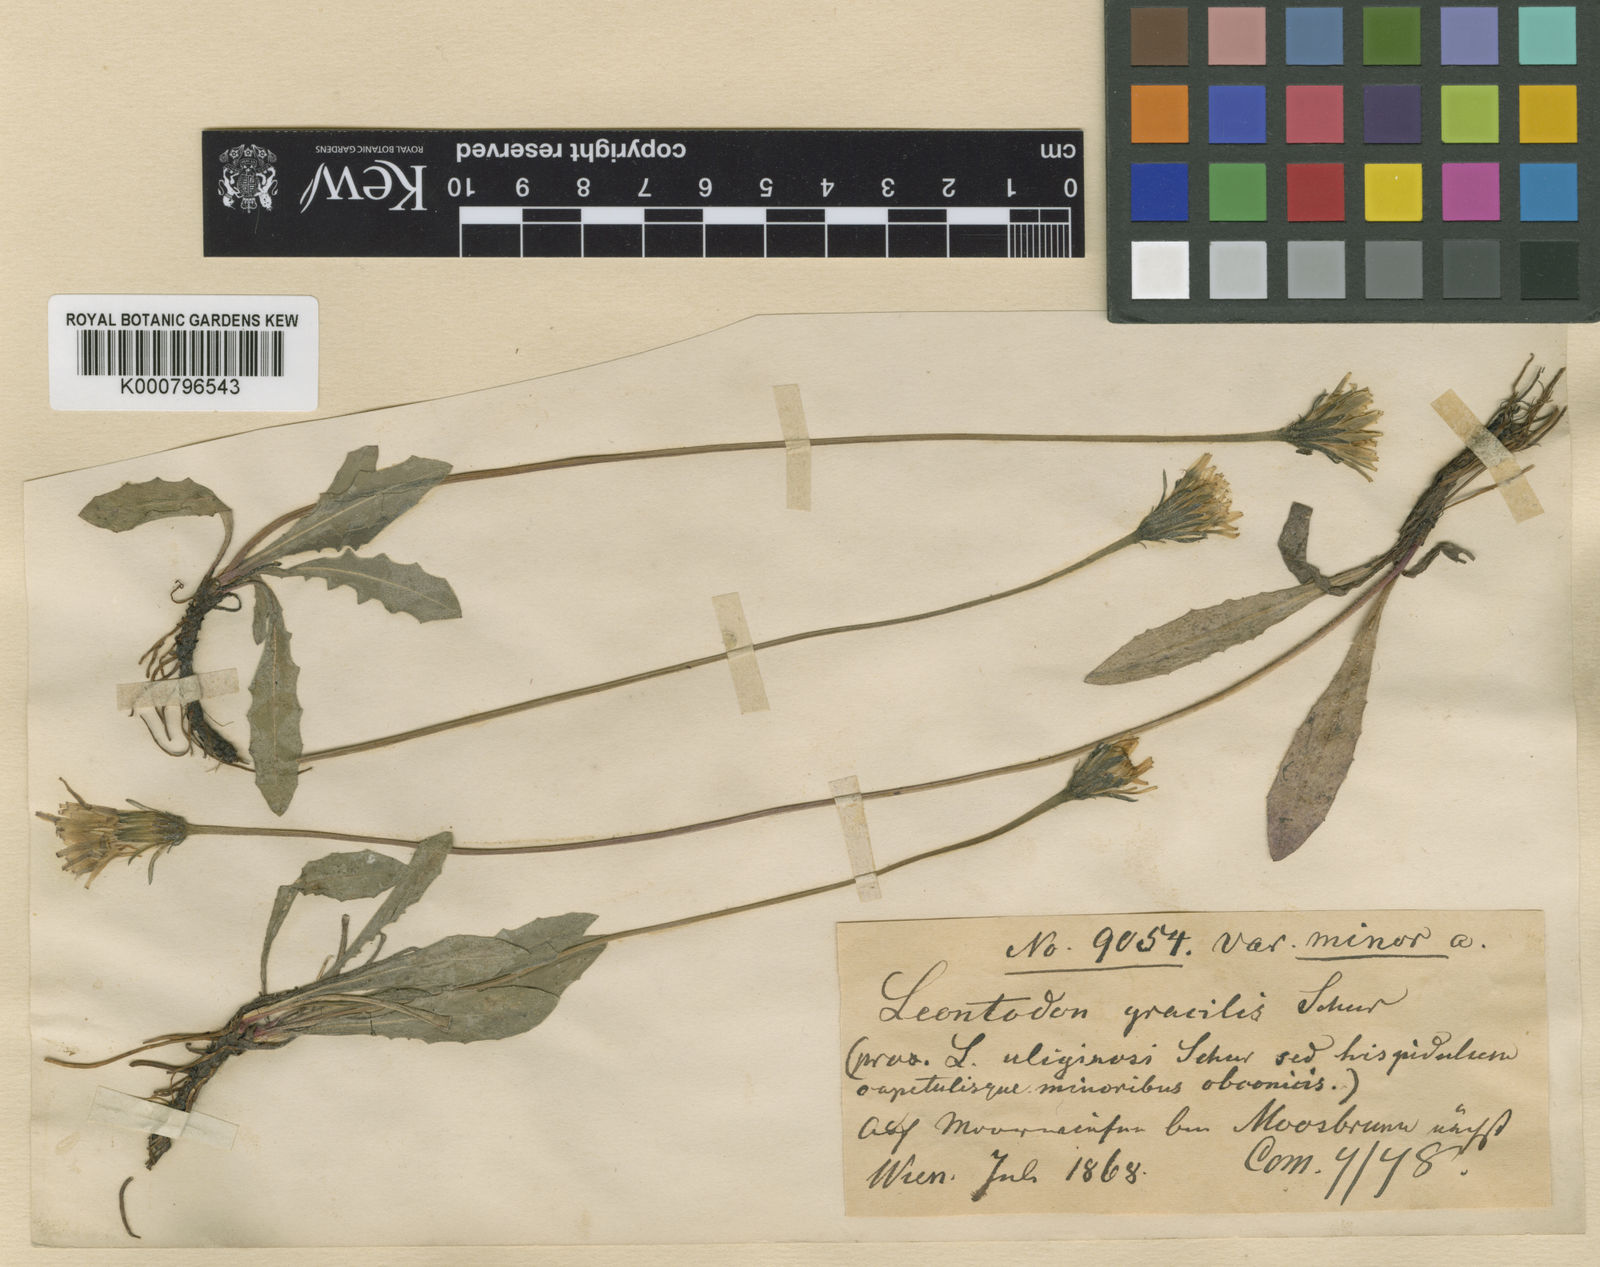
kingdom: Plantae
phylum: Tracheophyta
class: Magnoliopsida
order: Asterales
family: Asteraceae
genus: Leontodon
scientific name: Leontodon hispidus
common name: Rough hawkbit
